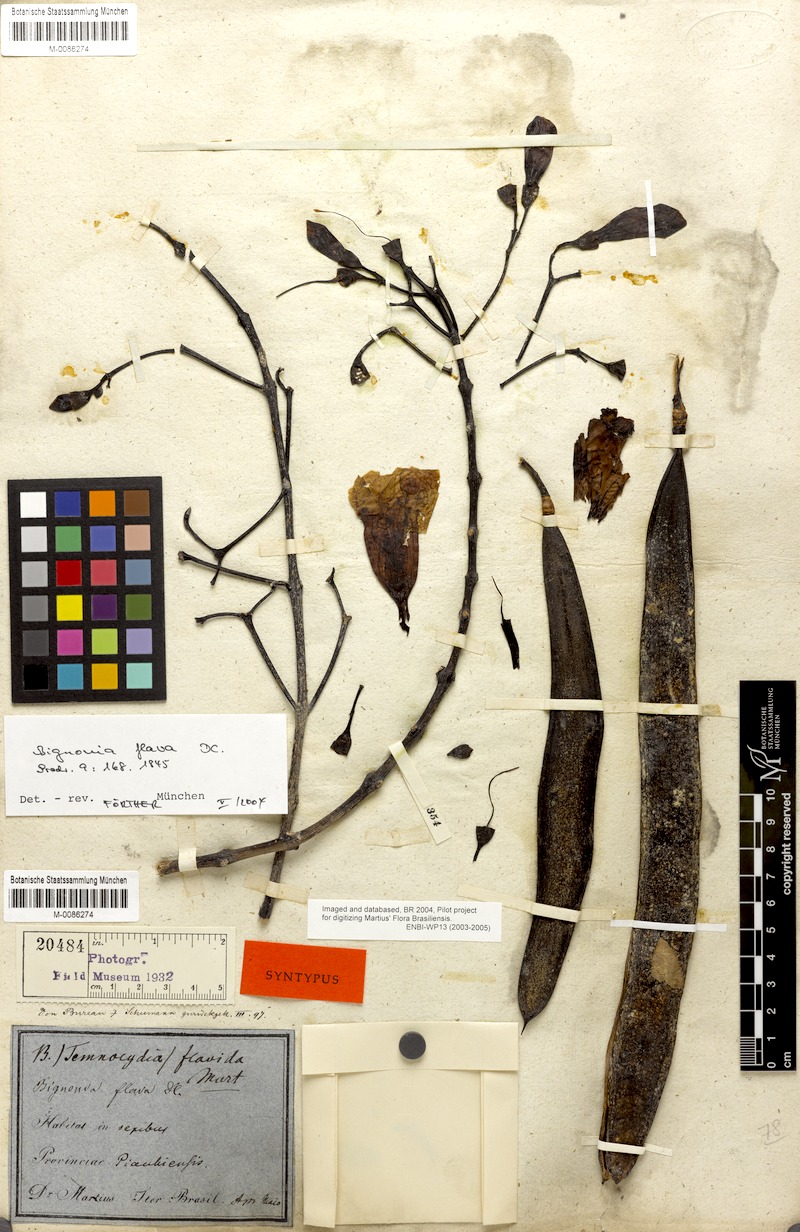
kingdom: Plantae
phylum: Tracheophyta
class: Magnoliopsida
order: Lamiales
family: Bignoniaceae
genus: Adenocalymma
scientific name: Adenocalymma neoflavidum
